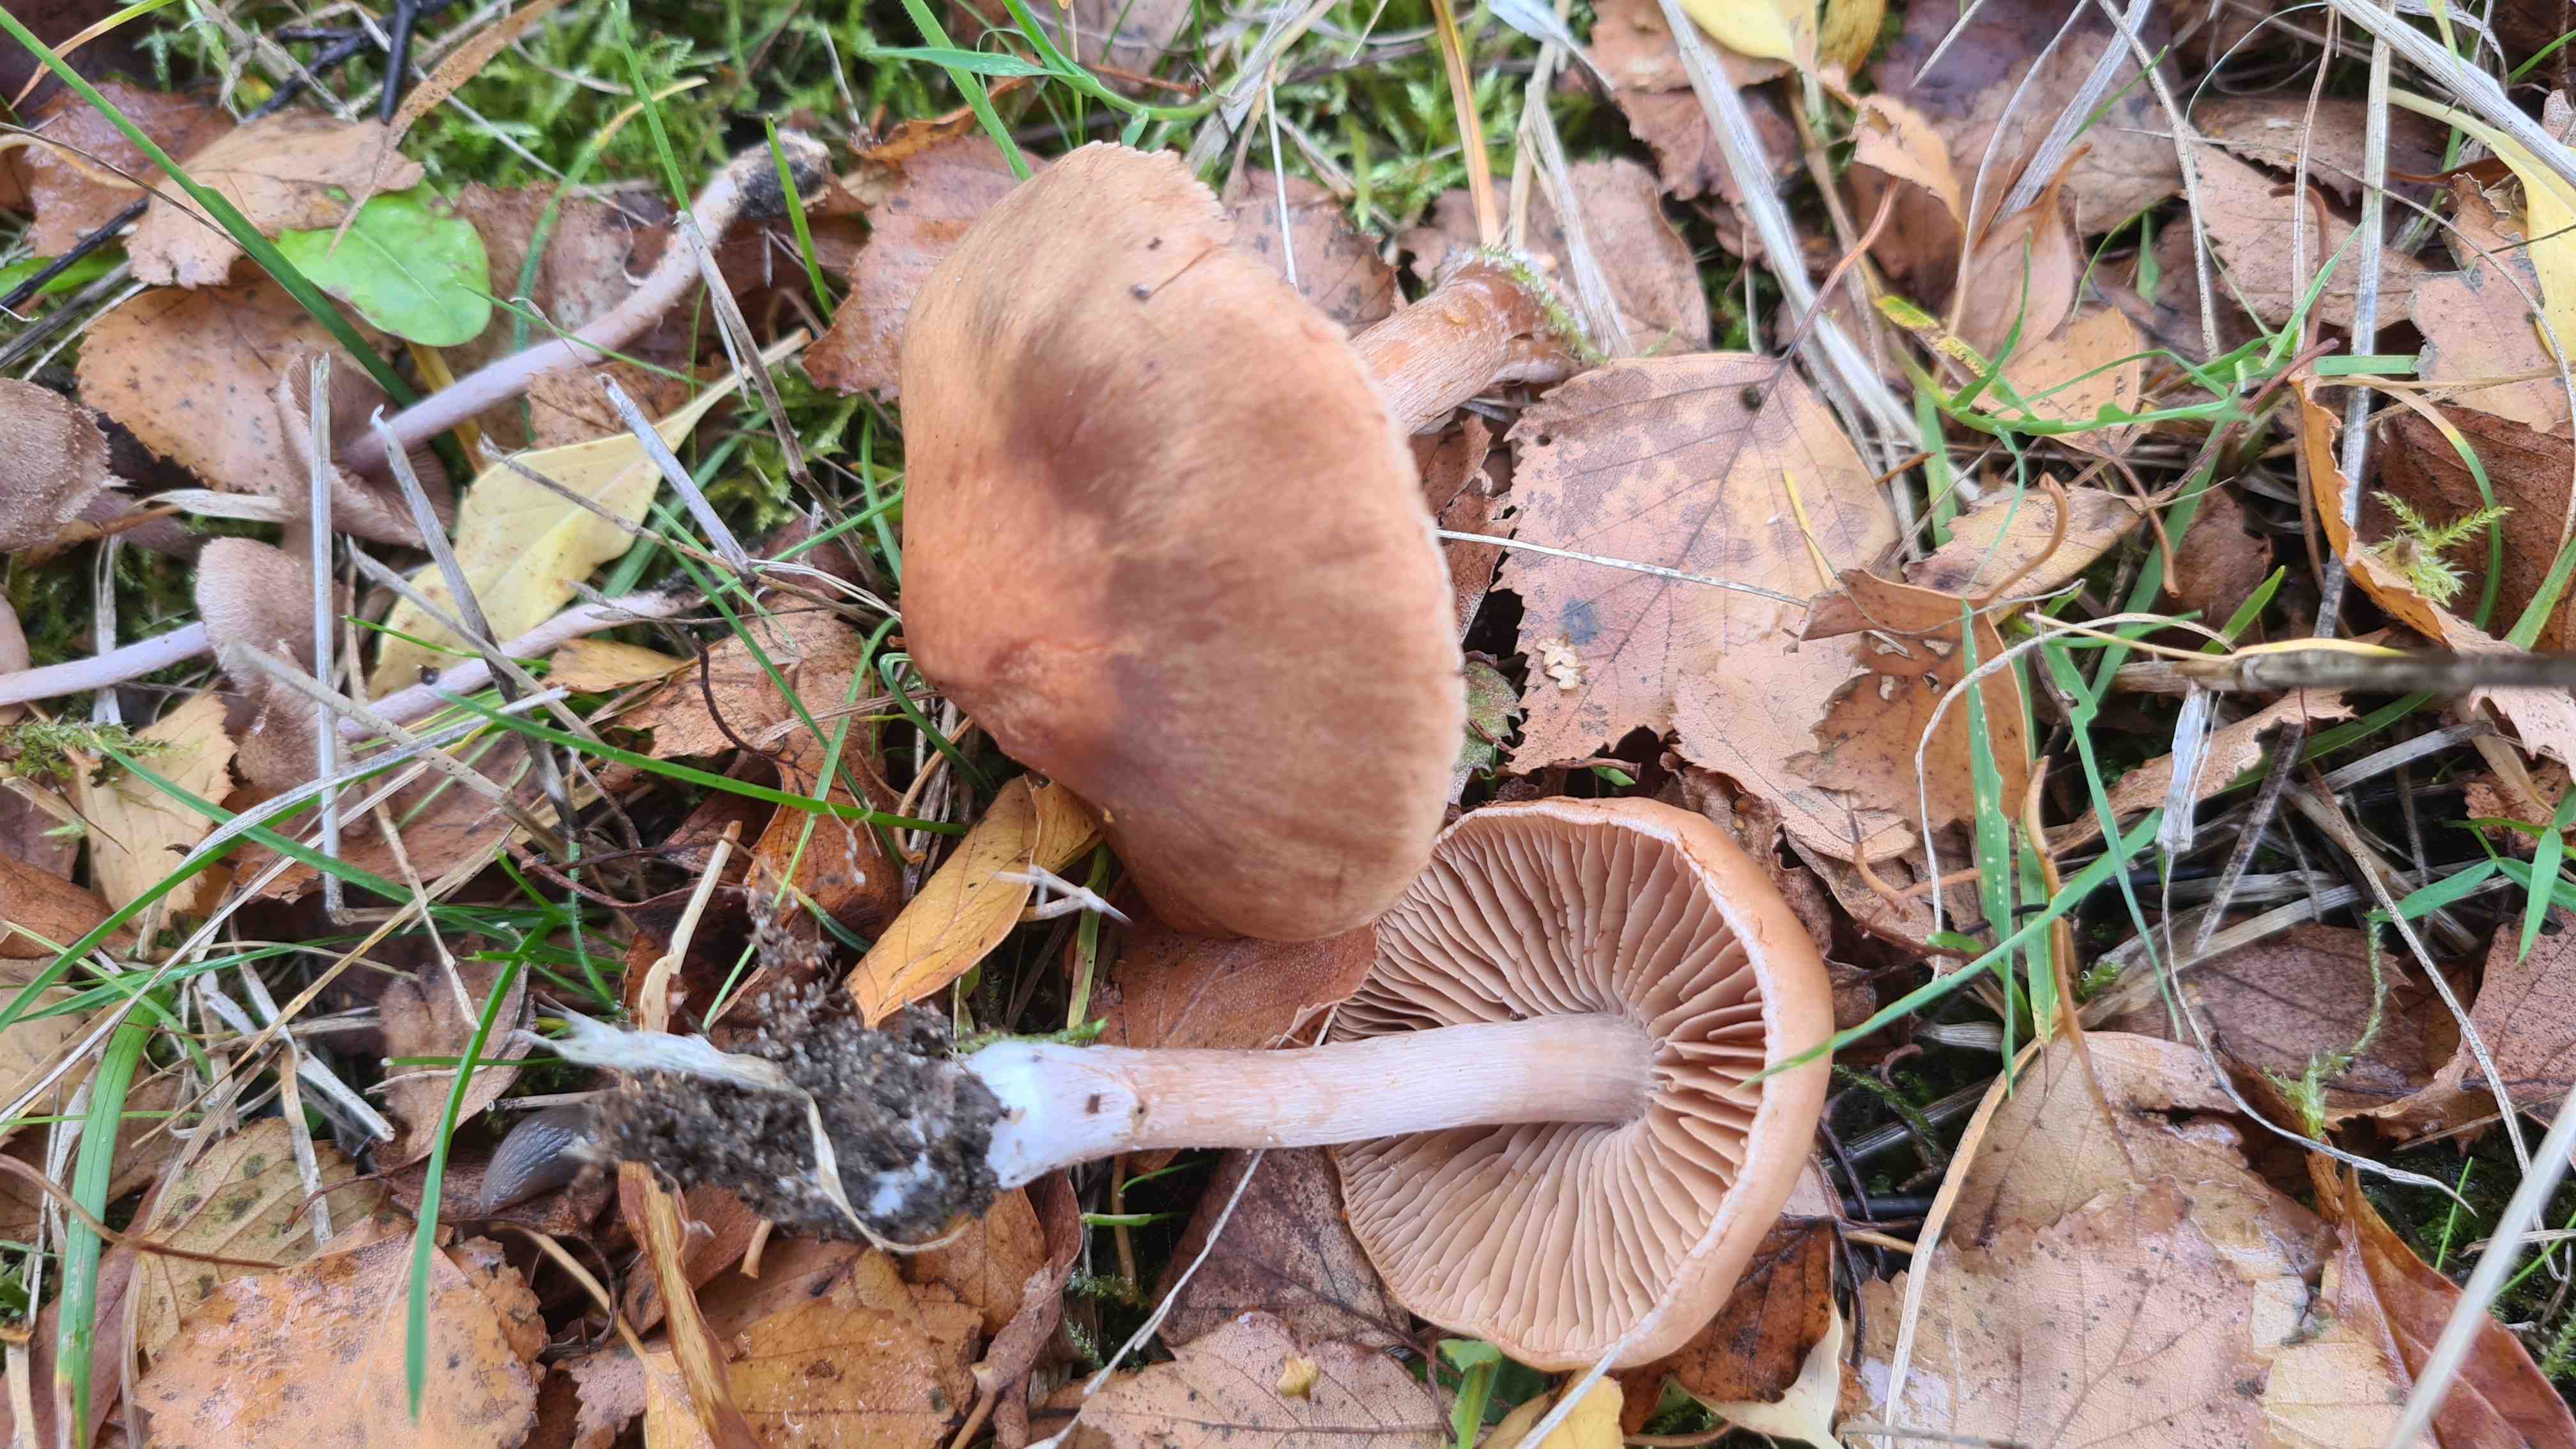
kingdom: Fungi
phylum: Basidiomycota
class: Agaricomycetes
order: Agaricales
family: Cortinariaceae
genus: Cortinarius
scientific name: Cortinarius
